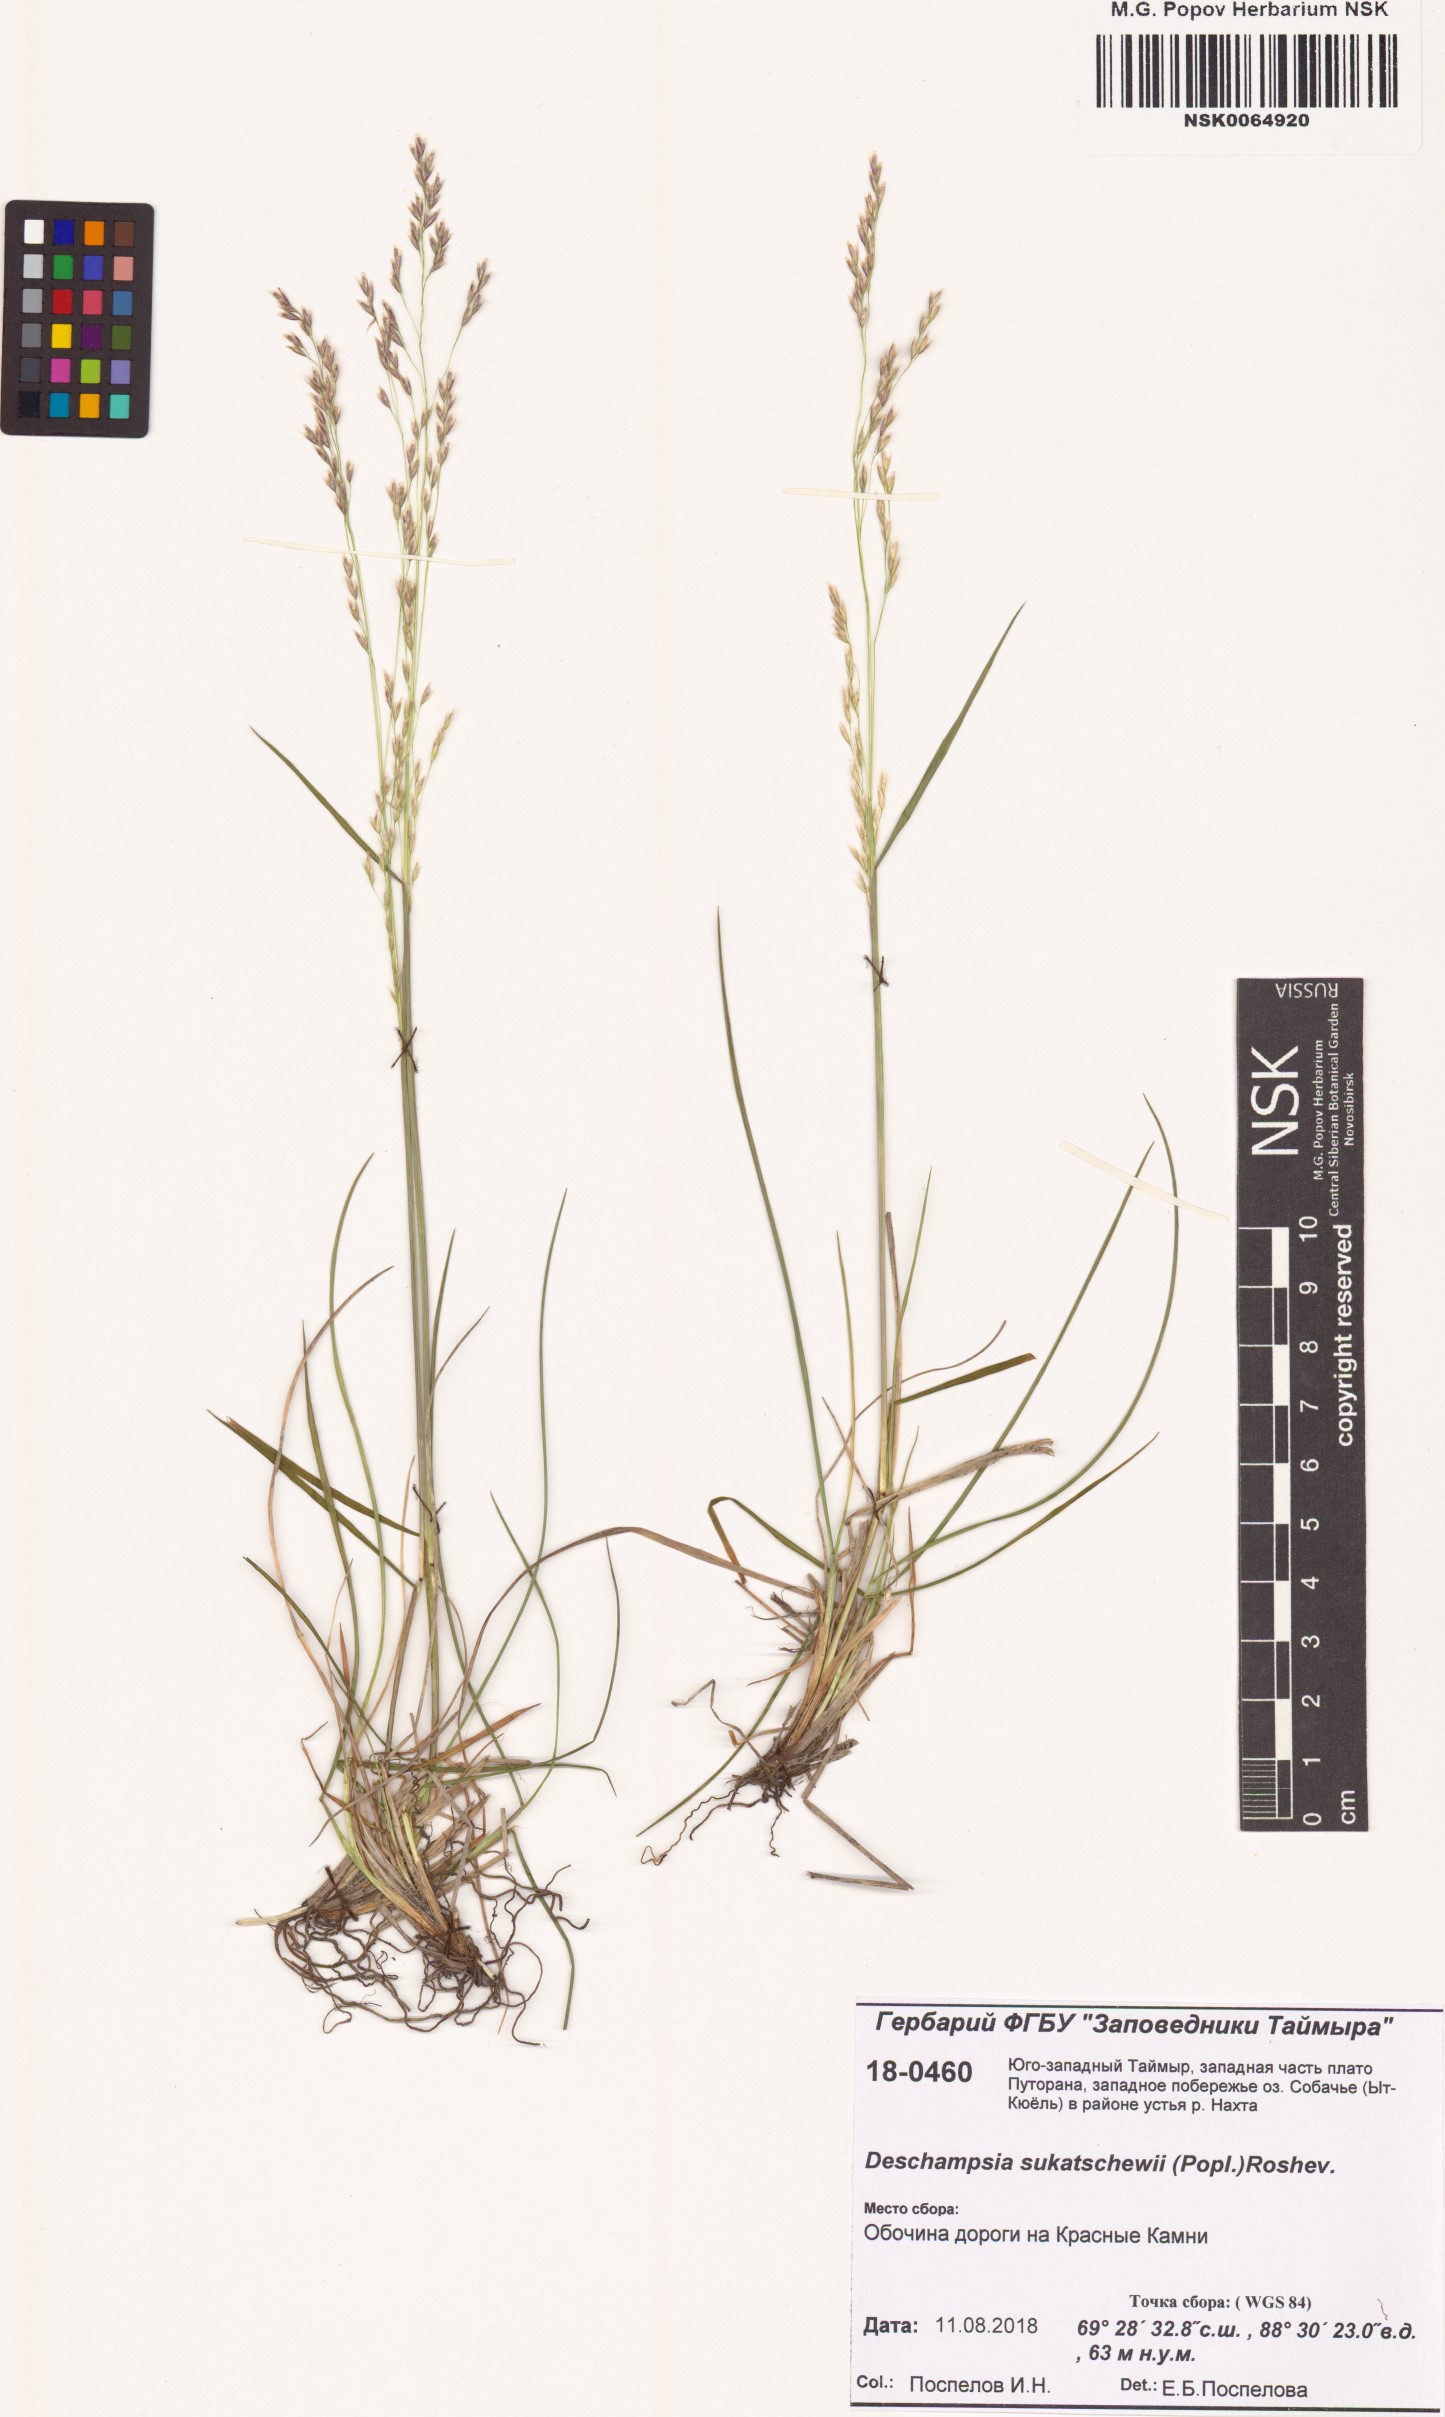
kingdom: Plantae
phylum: Tracheophyta
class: Liliopsida
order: Poales
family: Poaceae
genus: Deschampsia
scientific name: Deschampsia cespitosa
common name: Tufted hair-grass
